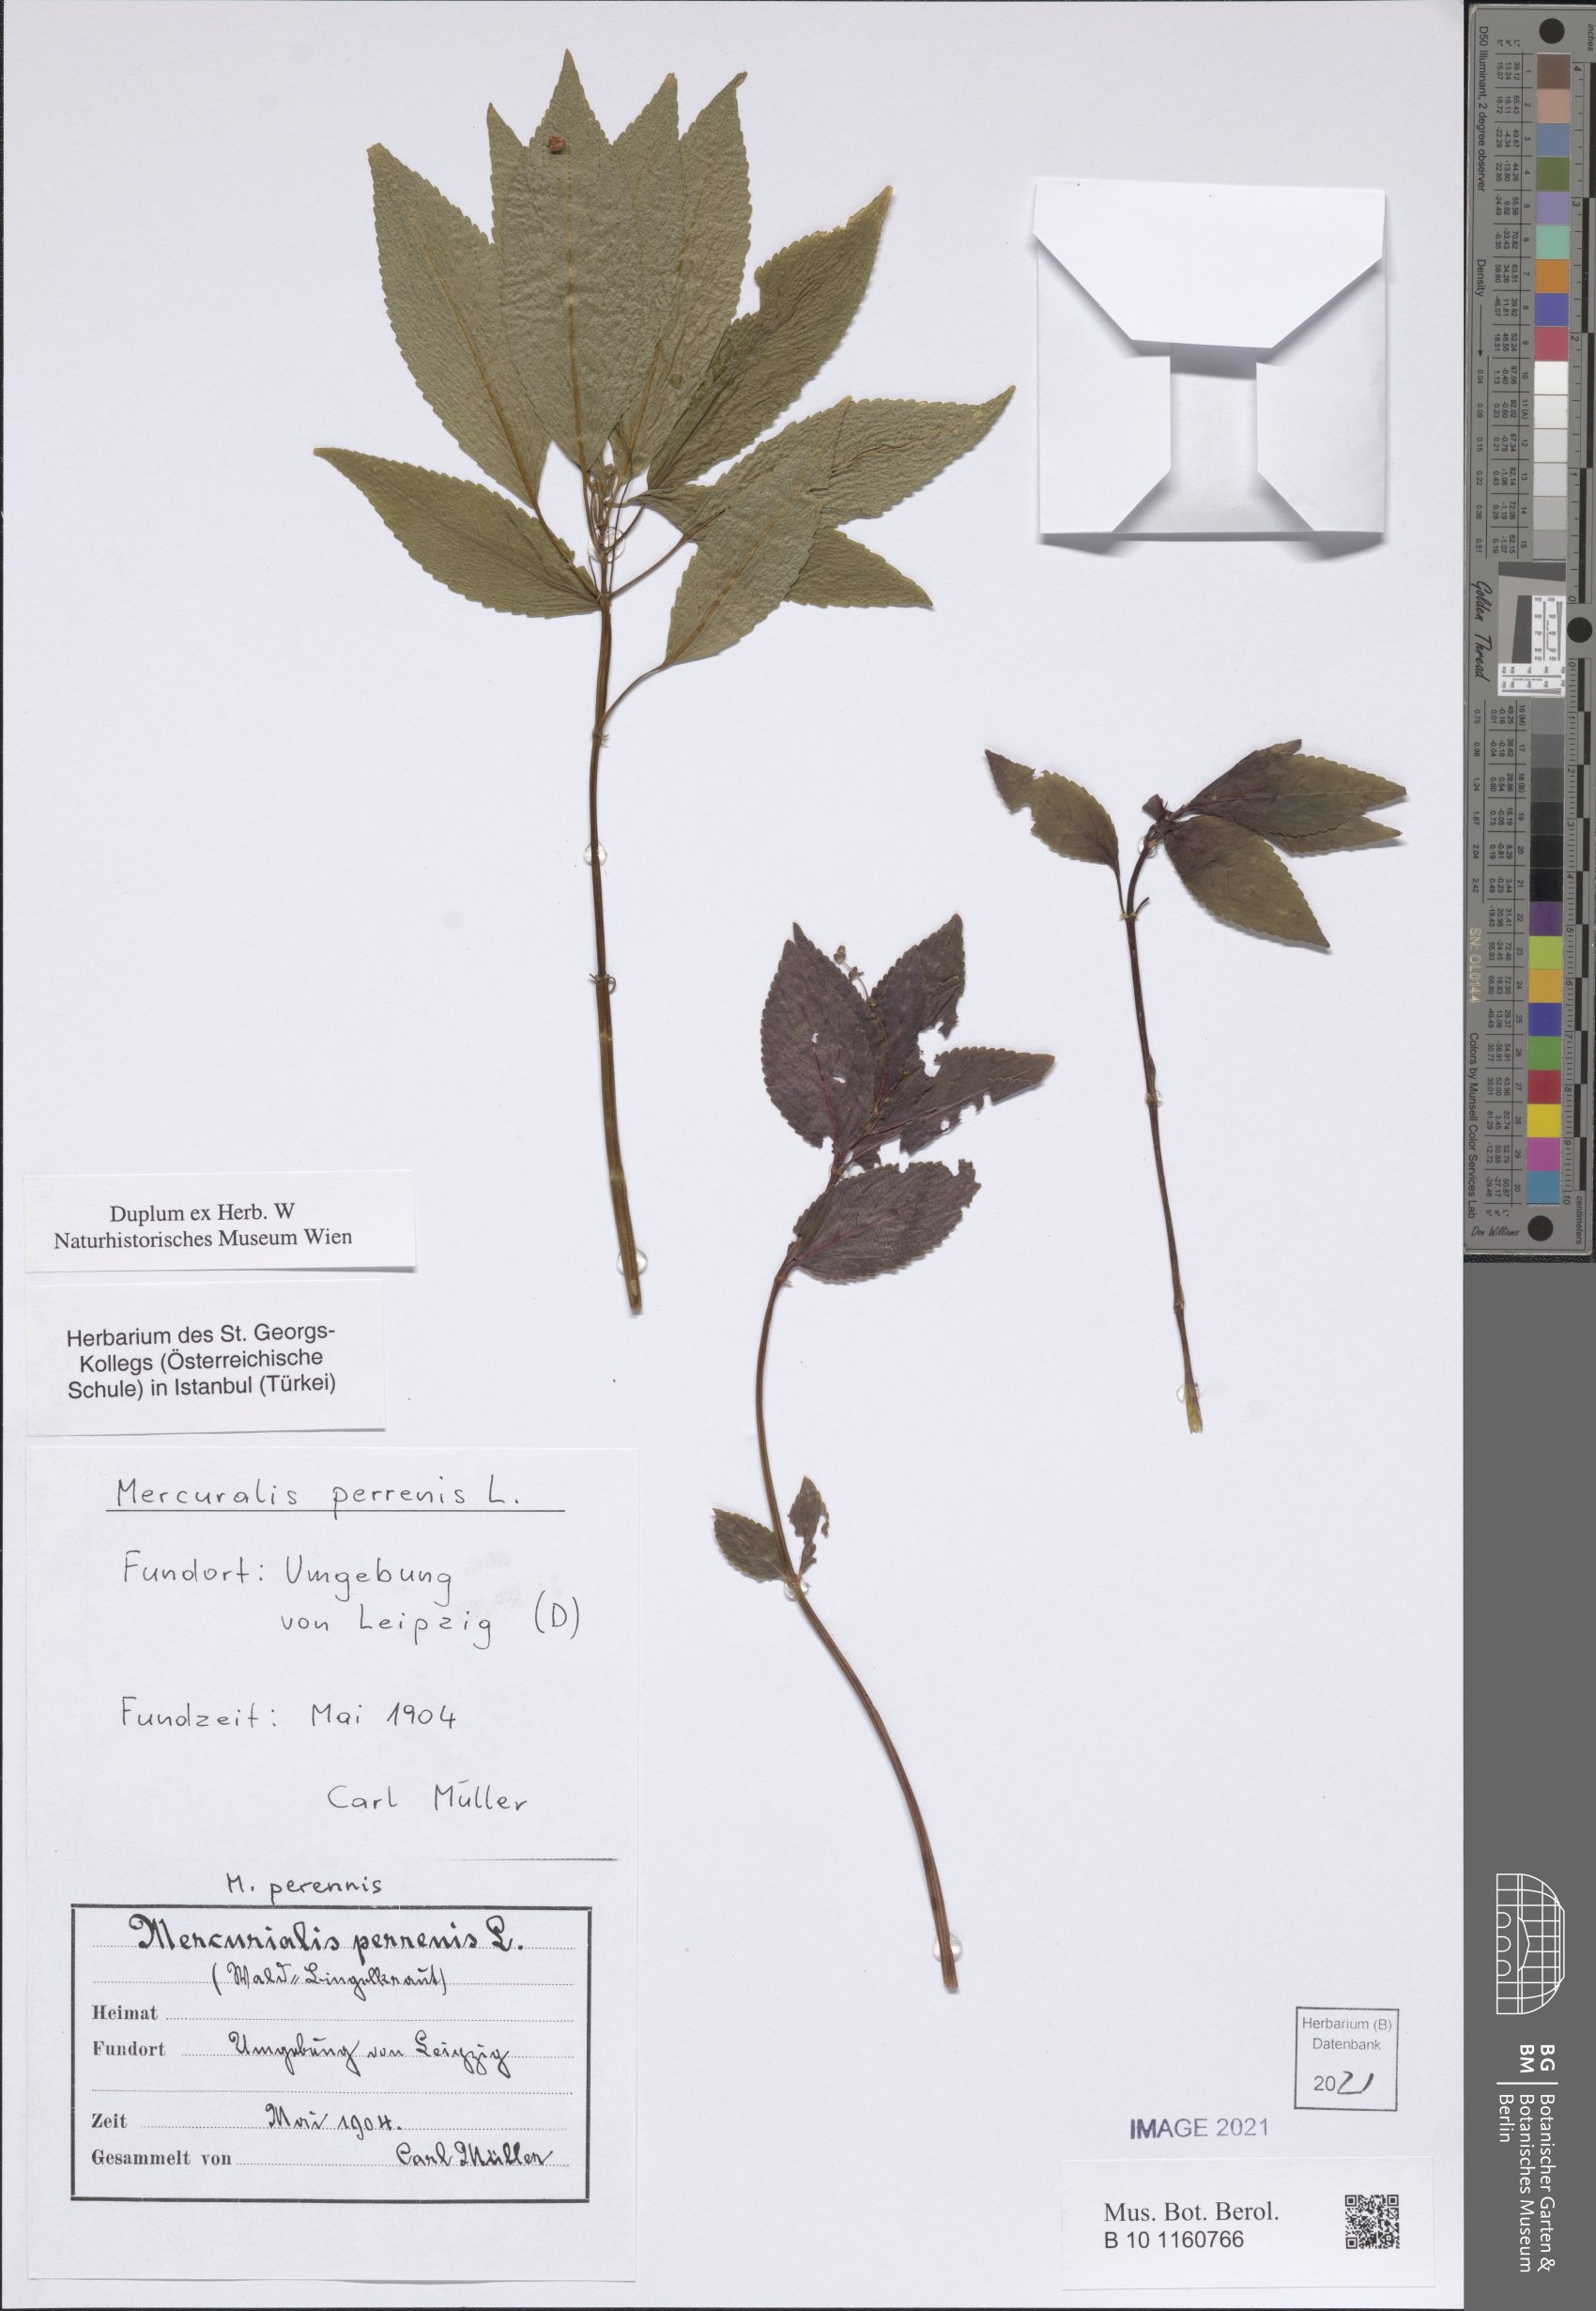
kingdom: Plantae
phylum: Tracheophyta
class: Magnoliopsida
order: Malpighiales
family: Euphorbiaceae
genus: Mercurialis
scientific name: Mercurialis perennis
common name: Dog mercury
